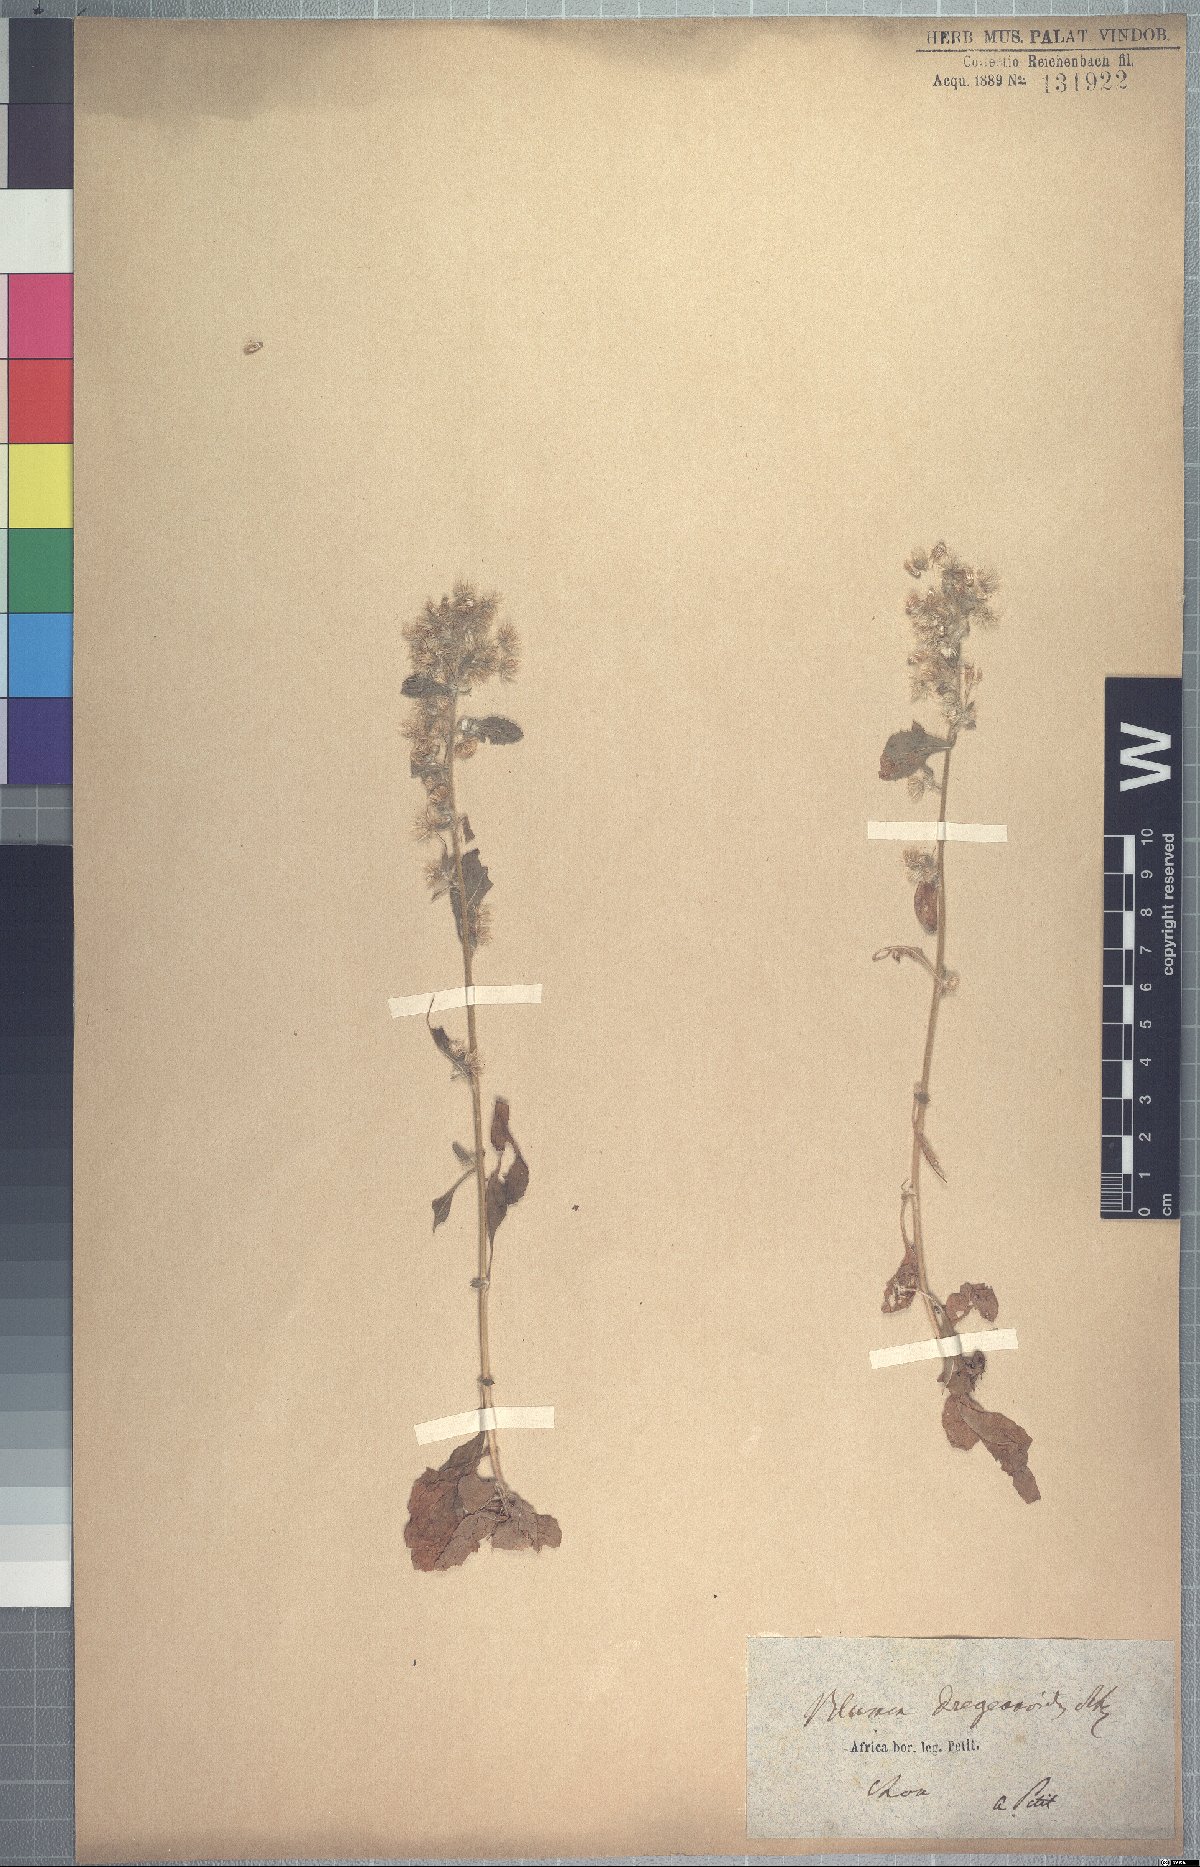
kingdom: Plantae
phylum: Tracheophyta
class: Magnoliopsida
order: Asterales
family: Asteraceae
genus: Blumea
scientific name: Blumea lacera
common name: Malay blumea
